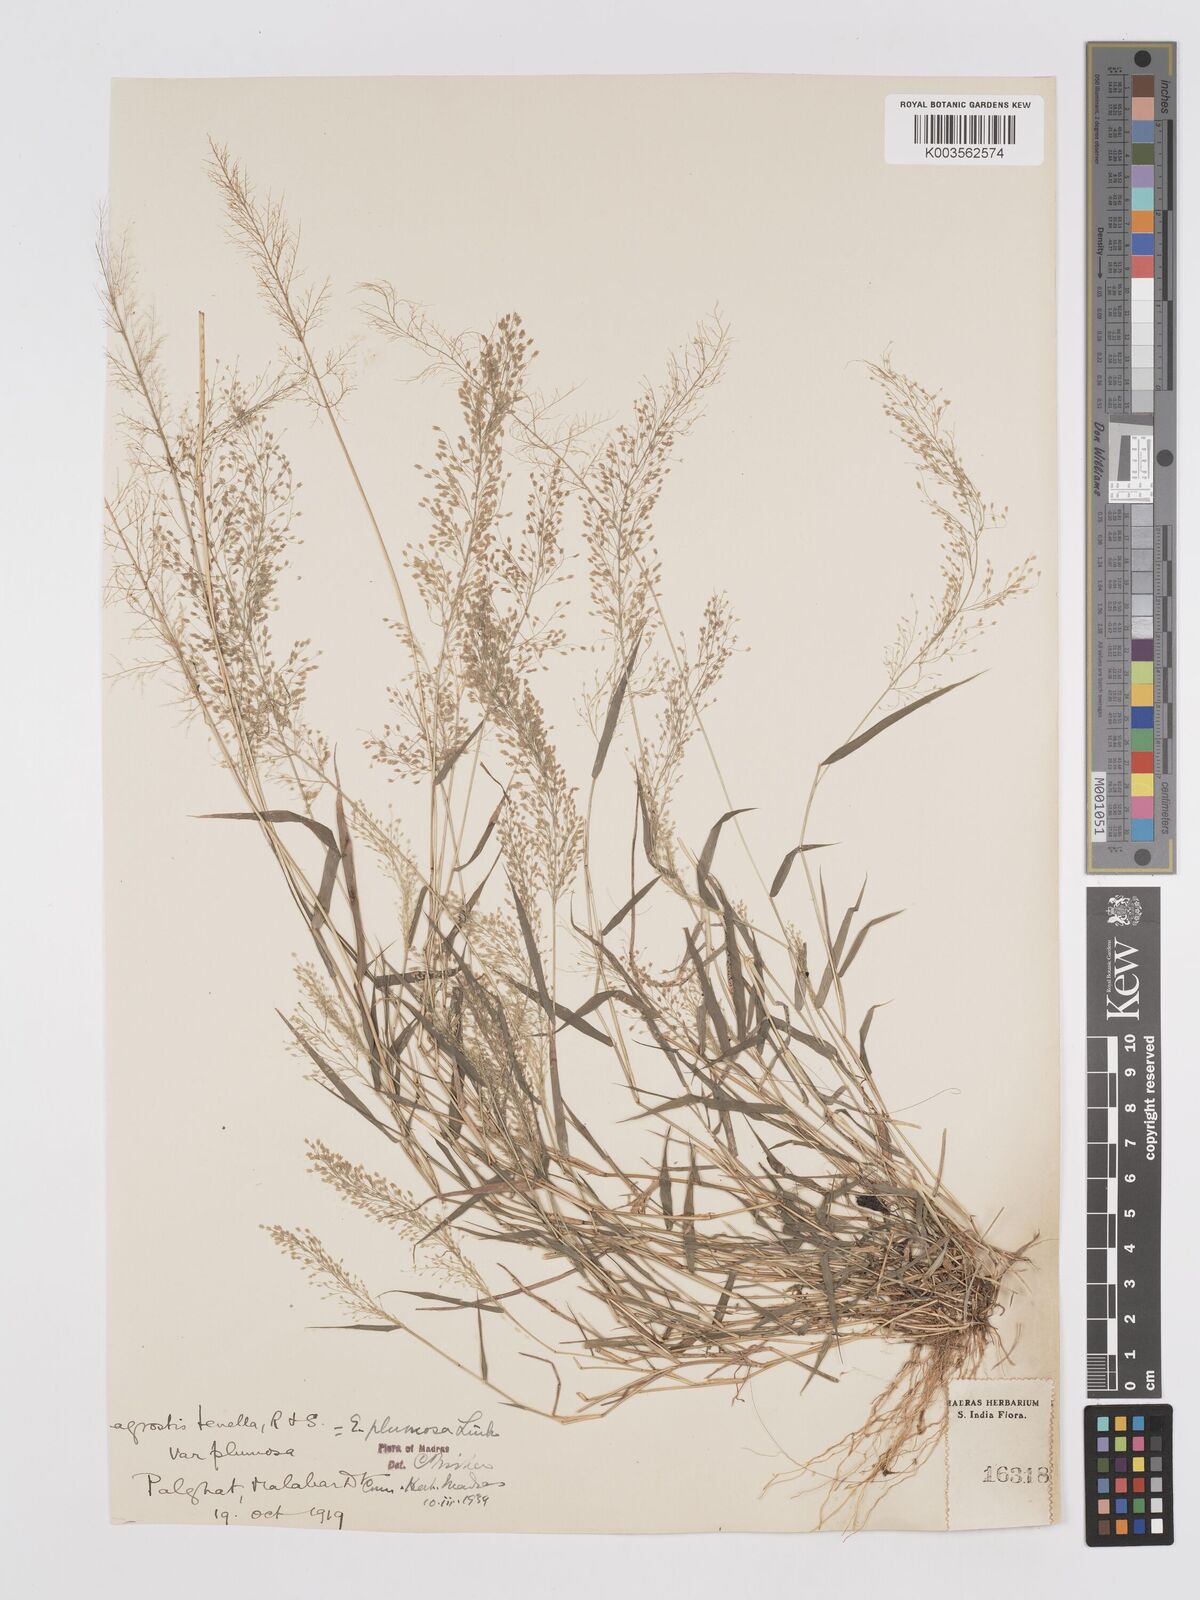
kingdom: Plantae
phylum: Tracheophyta
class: Liliopsida
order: Poales
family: Poaceae
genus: Eragrostis
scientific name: Eragrostis tenella
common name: Japanese lovegrass
